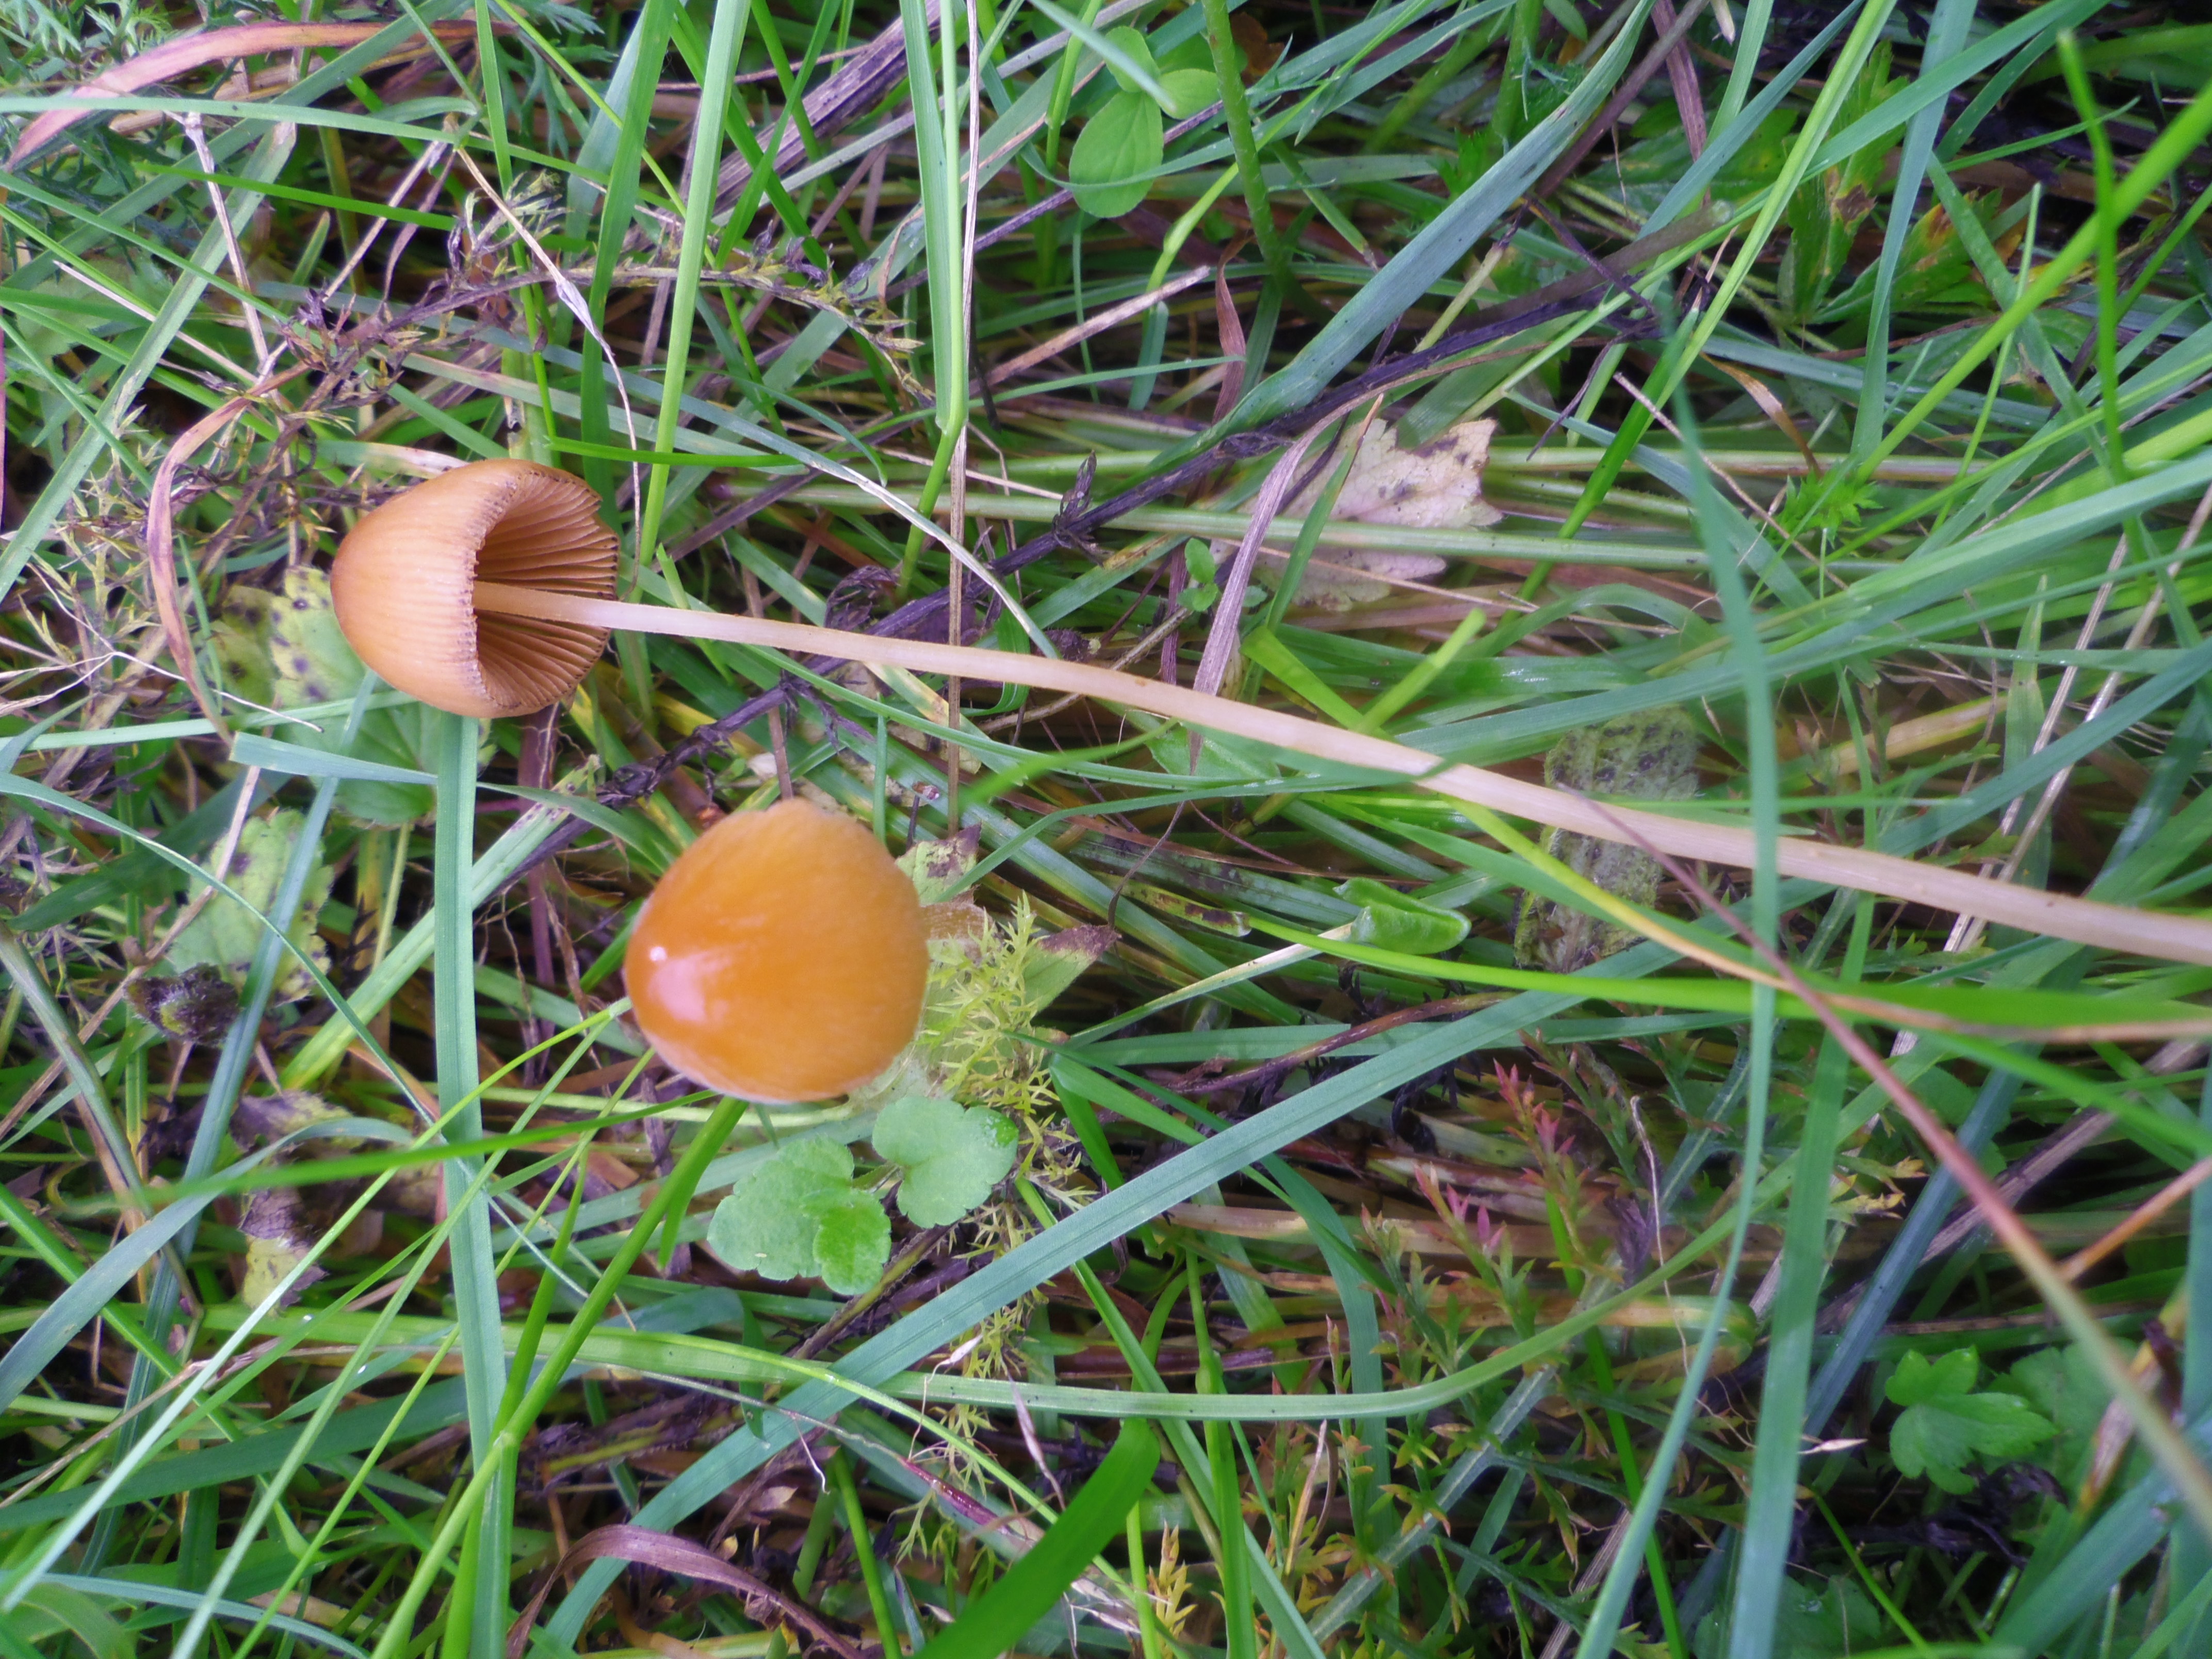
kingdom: Fungi
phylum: Basidiomycota
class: Agaricomycetes
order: Agaricales
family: Bolbitiaceae
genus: Conocybe
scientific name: Conocybe
